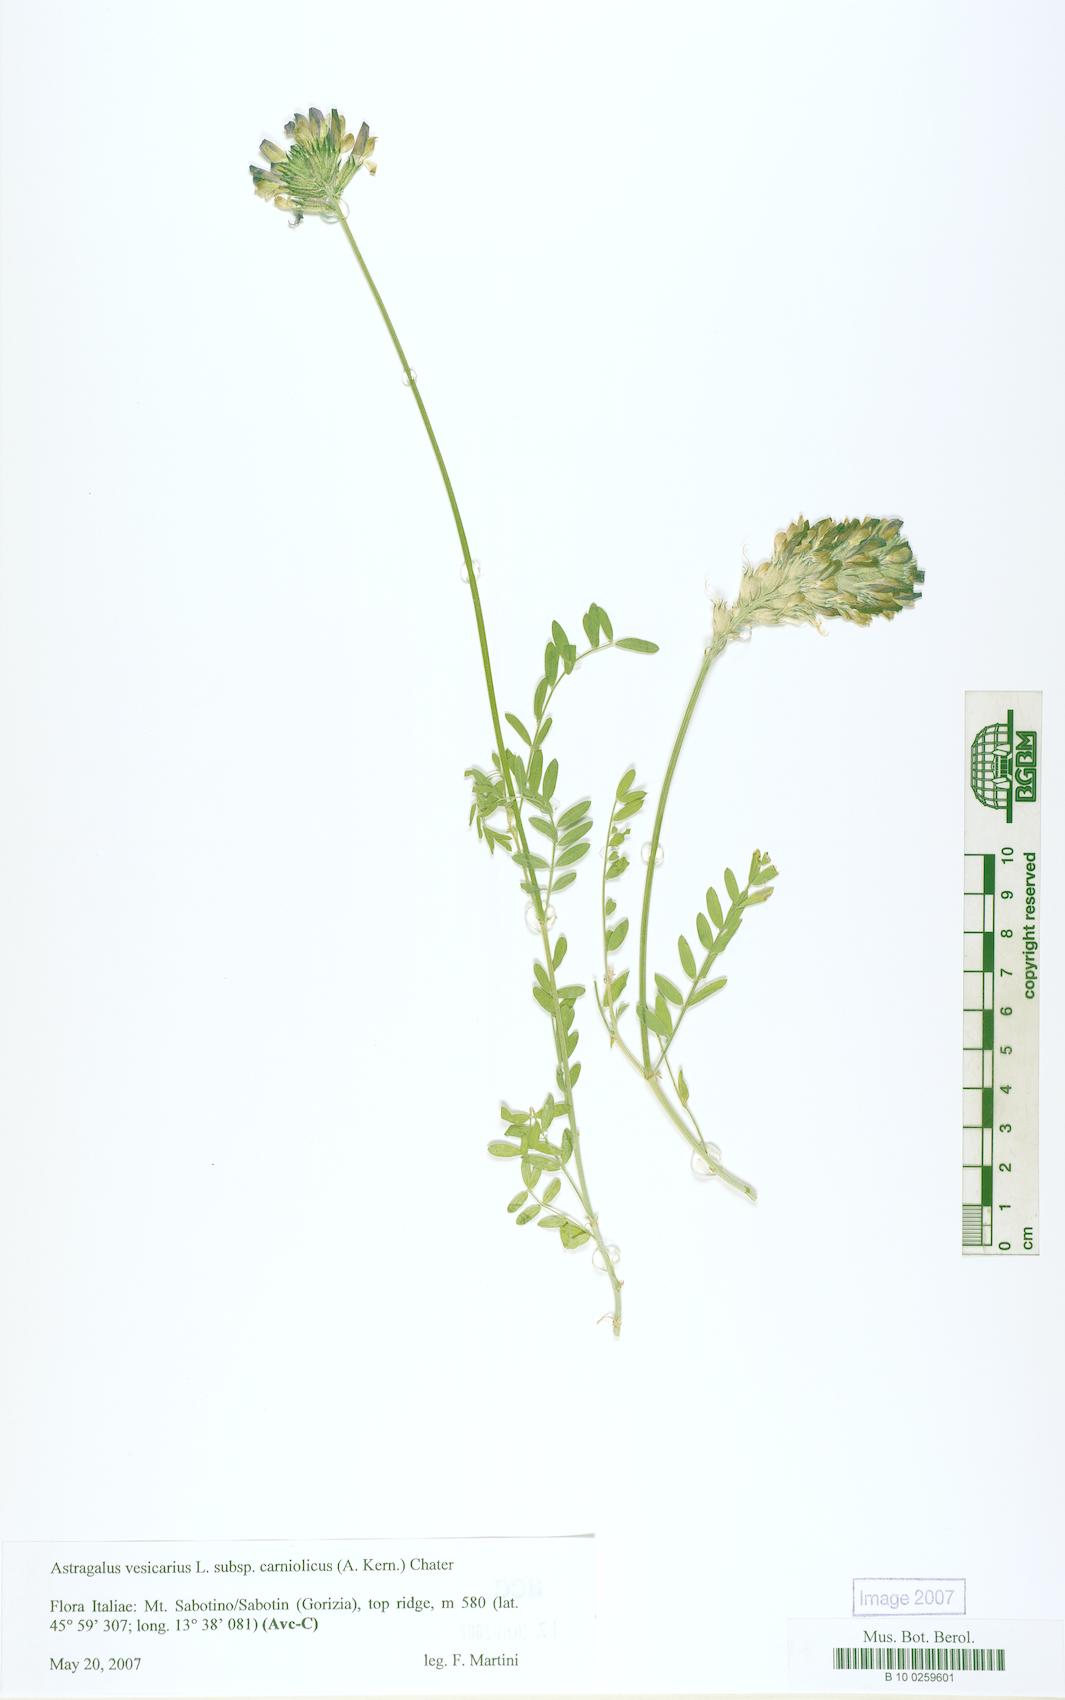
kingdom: Plantae
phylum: Tracheophyta
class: Magnoliopsida
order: Fabales
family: Fabaceae
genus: Astragalus
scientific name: Astragalus vesicarius
